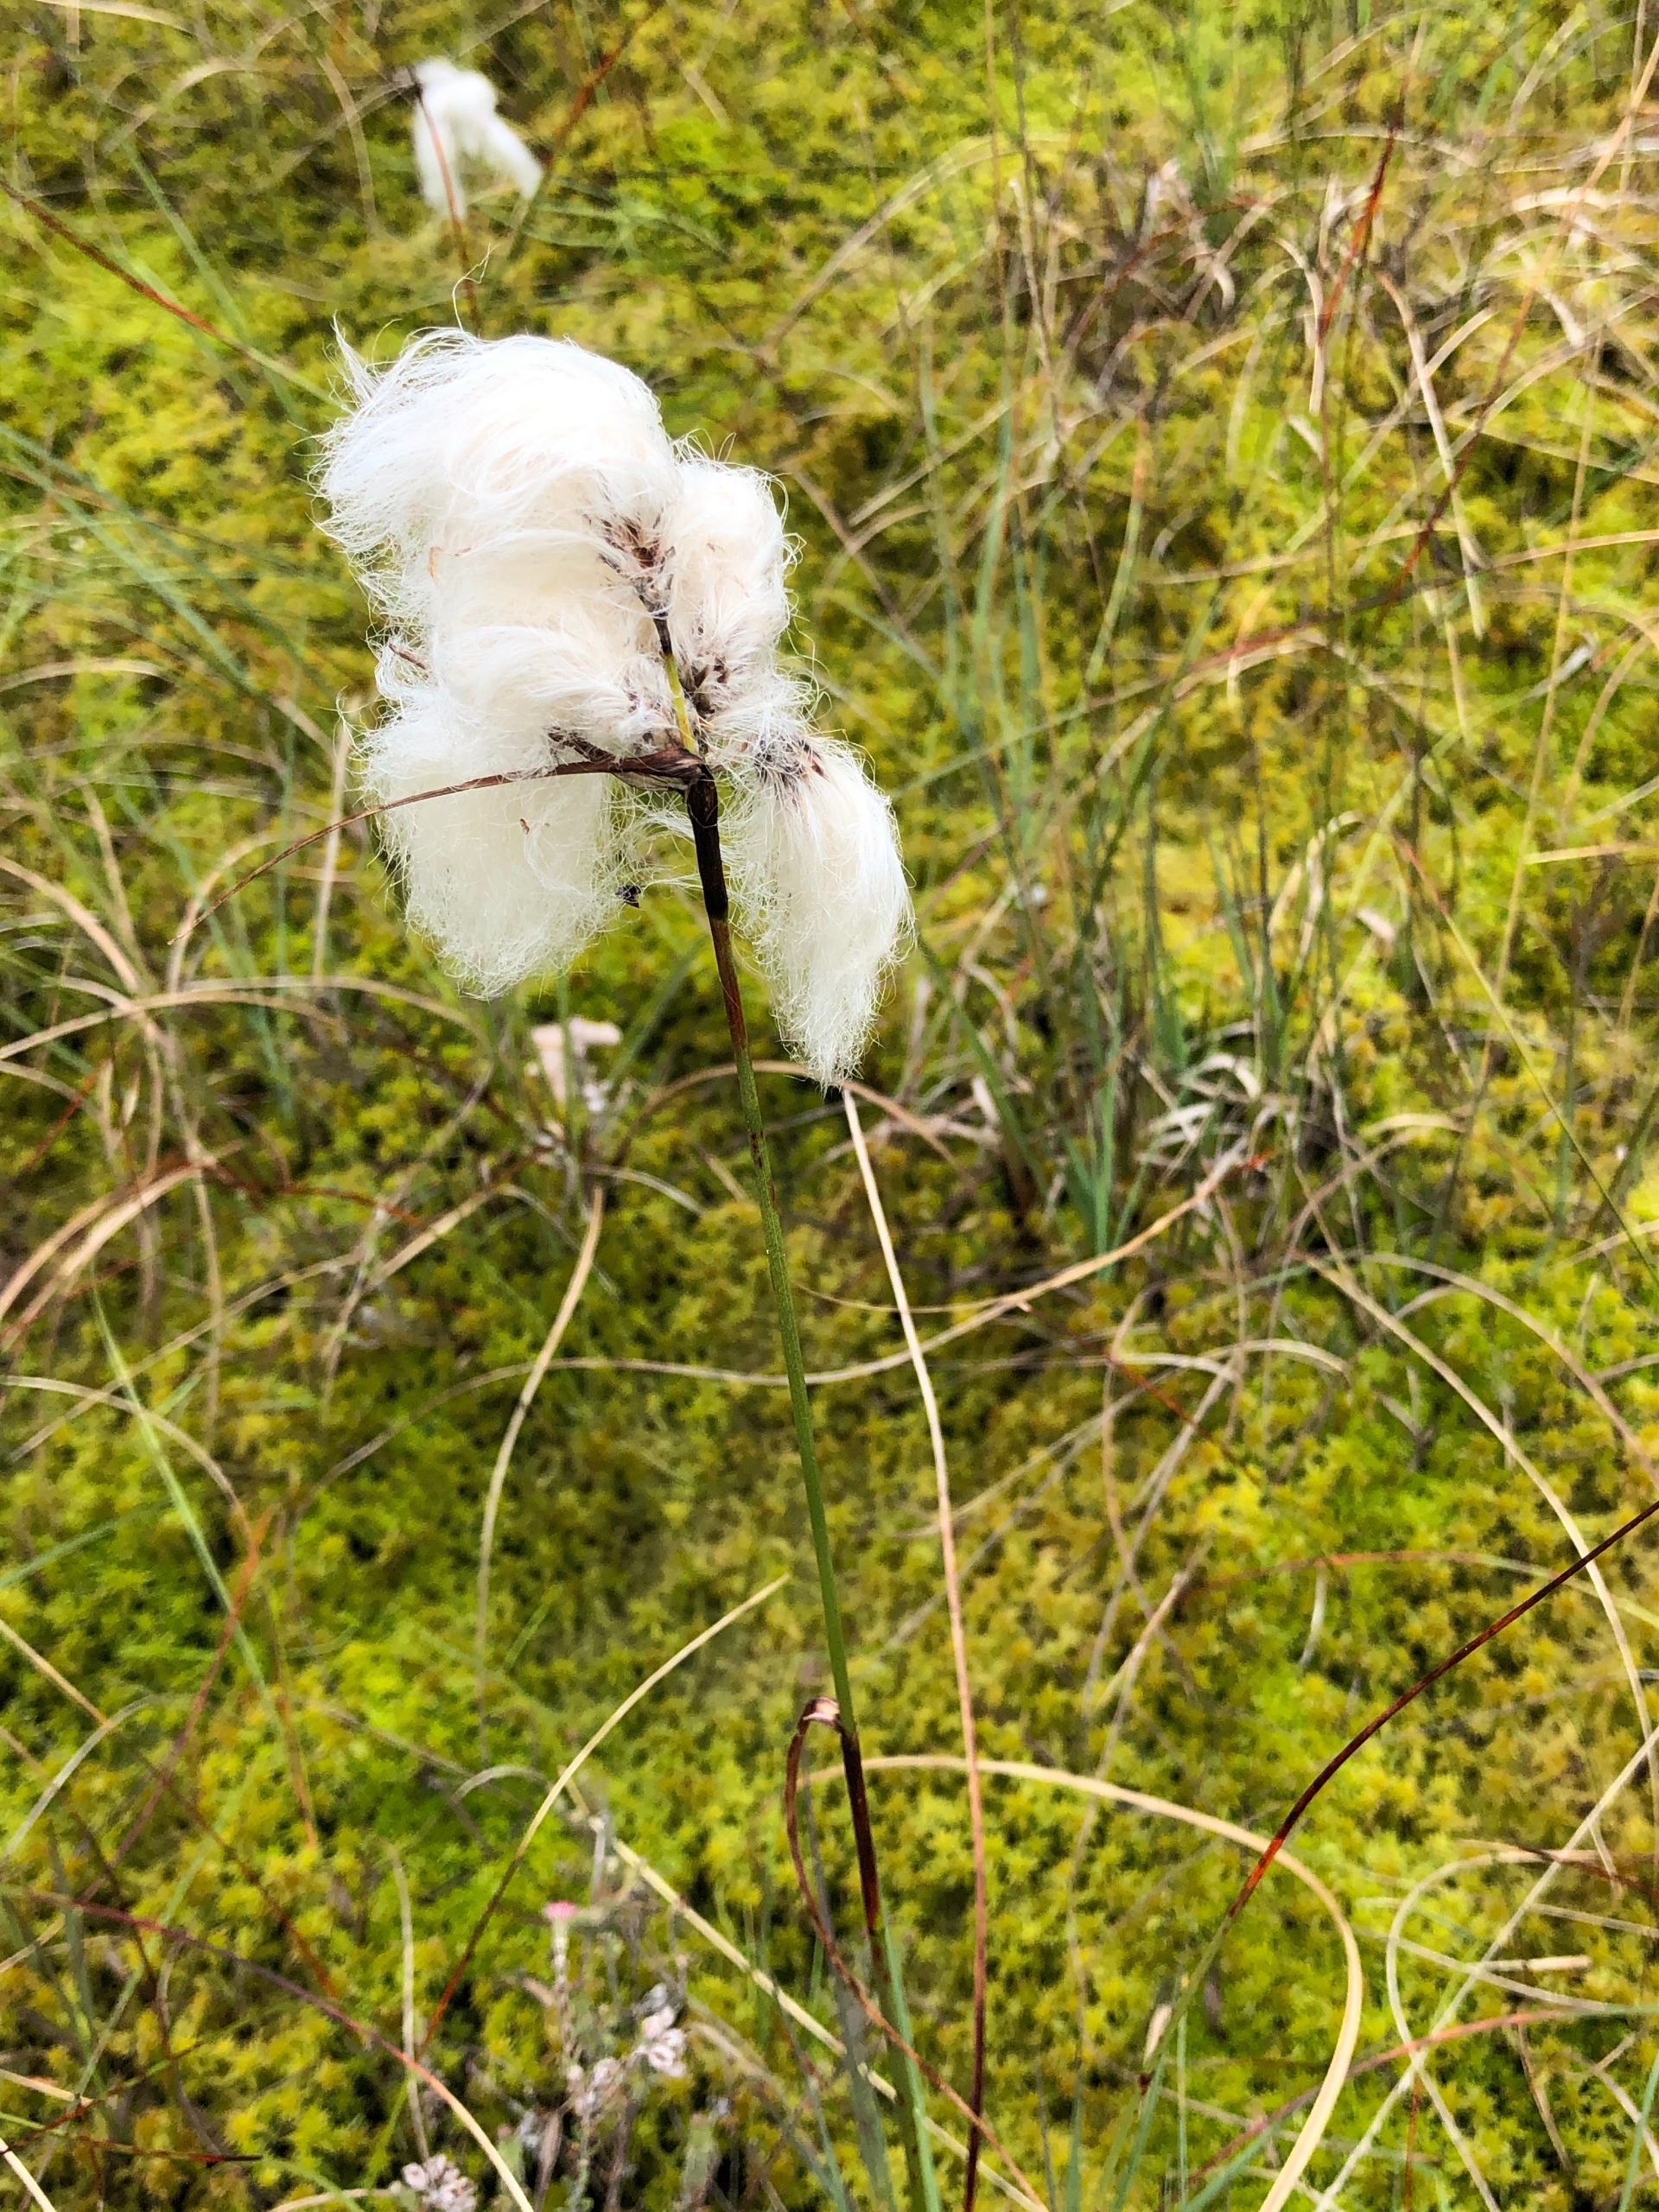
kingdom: Plantae
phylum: Tracheophyta
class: Liliopsida
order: Poales
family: Cyperaceae
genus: Eriophorum
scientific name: Eriophorum angustifolium
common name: Smalbladet kæruld
